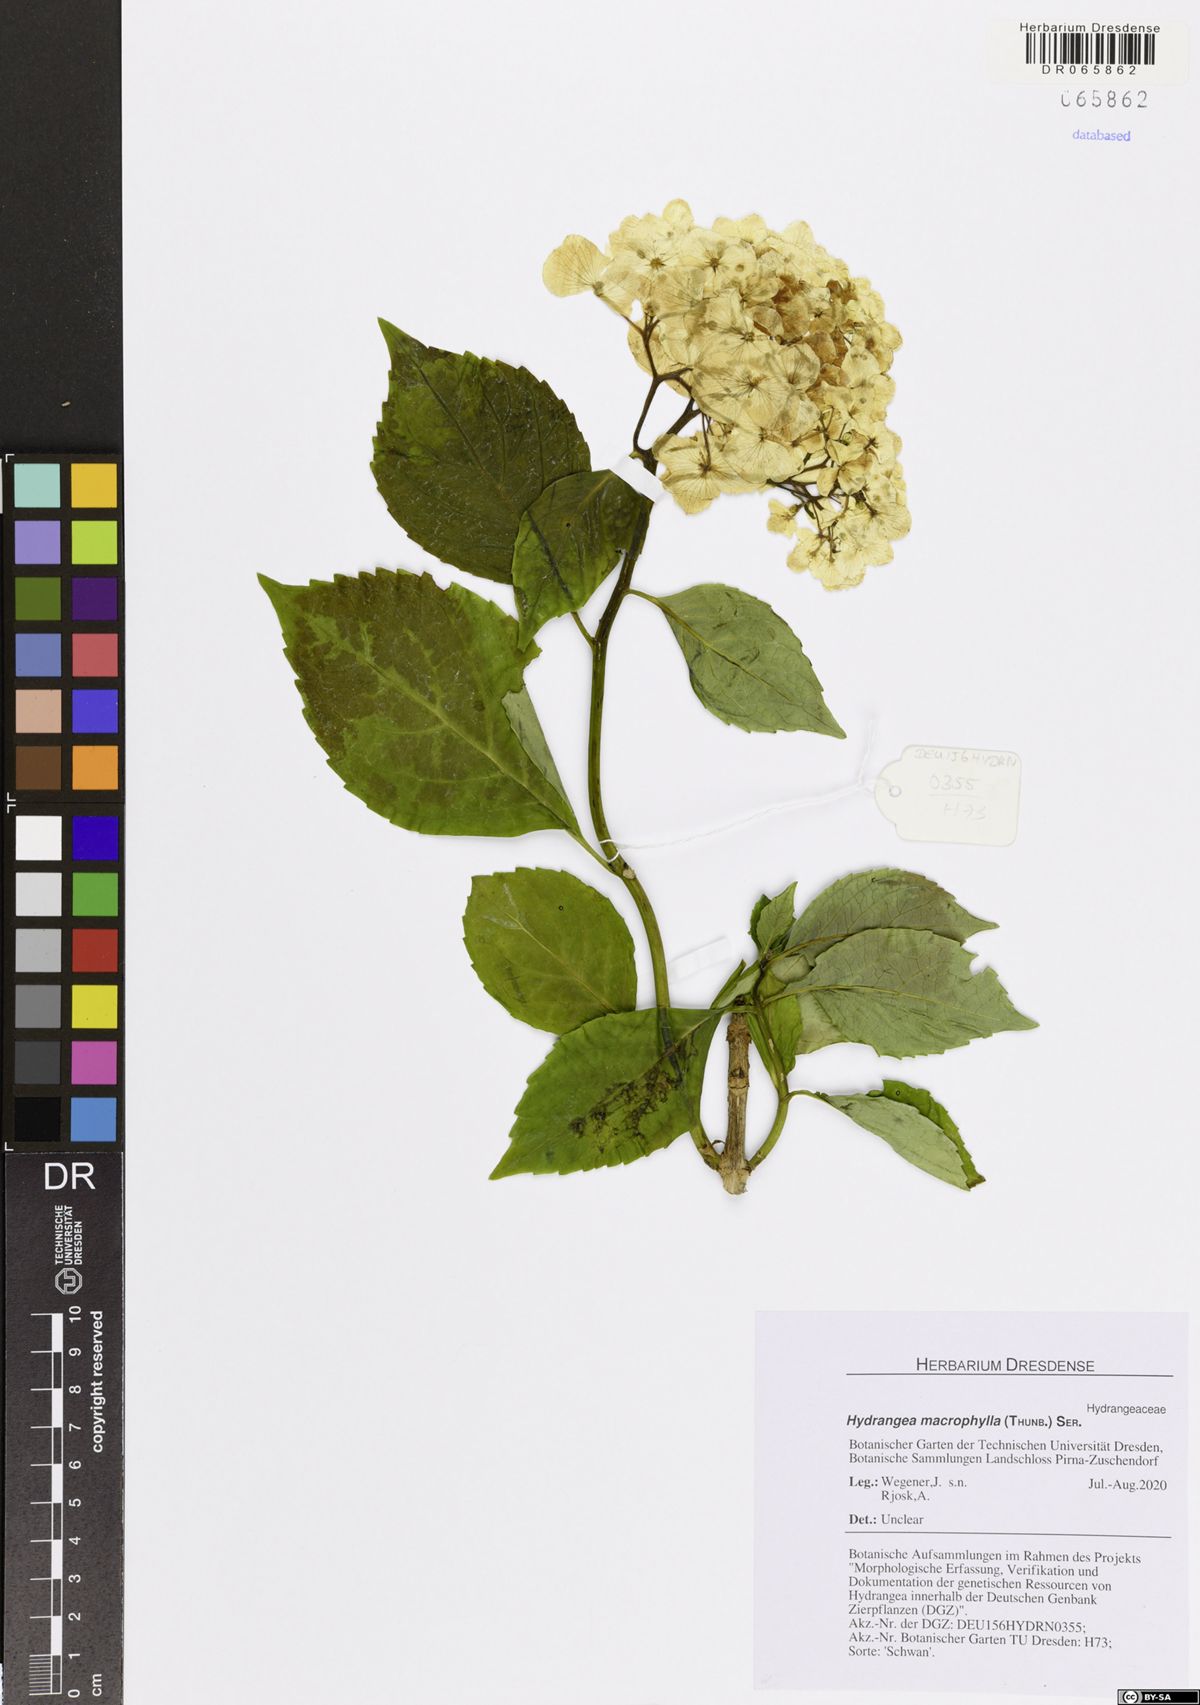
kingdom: Plantae
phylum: Tracheophyta
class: Magnoliopsida
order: Cornales
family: Hydrangeaceae
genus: Hydrangea
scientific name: Hydrangea macrophylla
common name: Hydrangea
